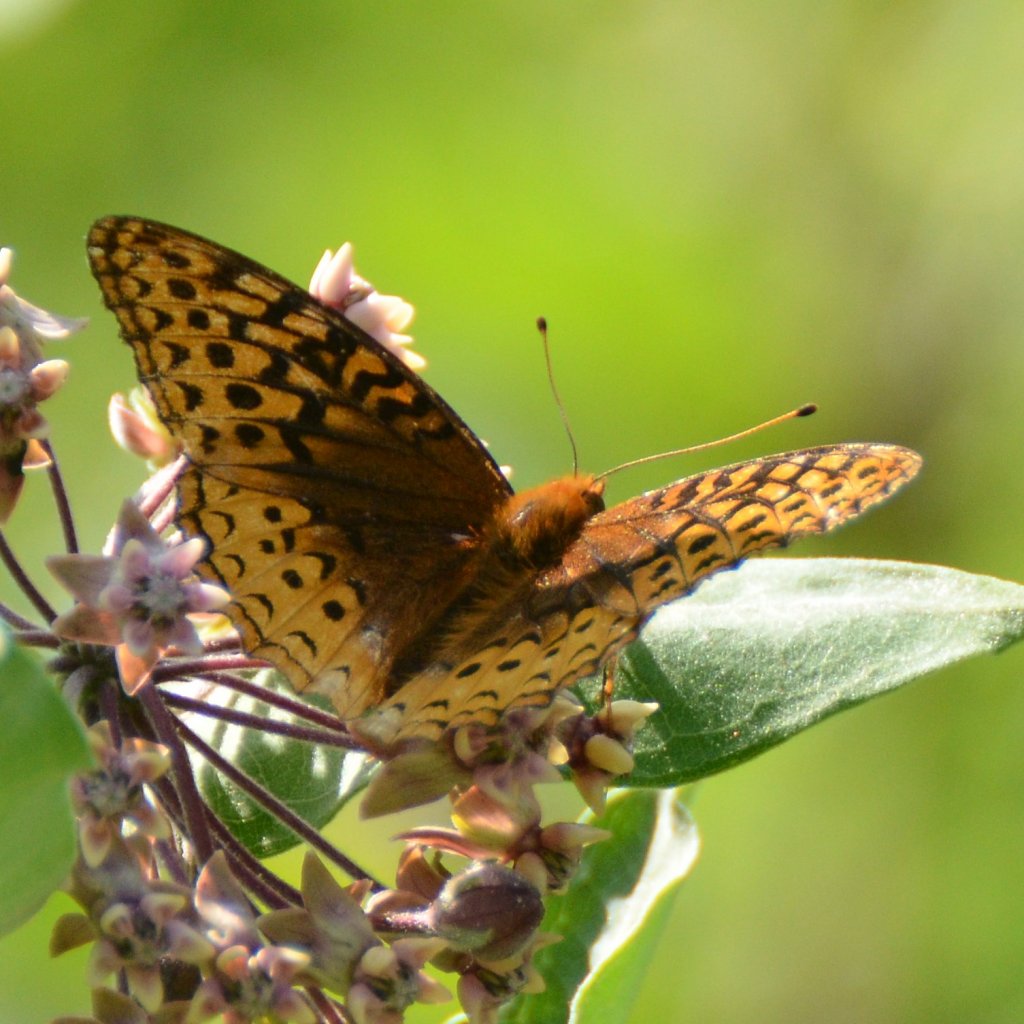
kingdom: Animalia
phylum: Arthropoda
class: Insecta
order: Lepidoptera
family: Nymphalidae
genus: Speyeria
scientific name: Speyeria cybele
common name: Great Spangled Fritillary
